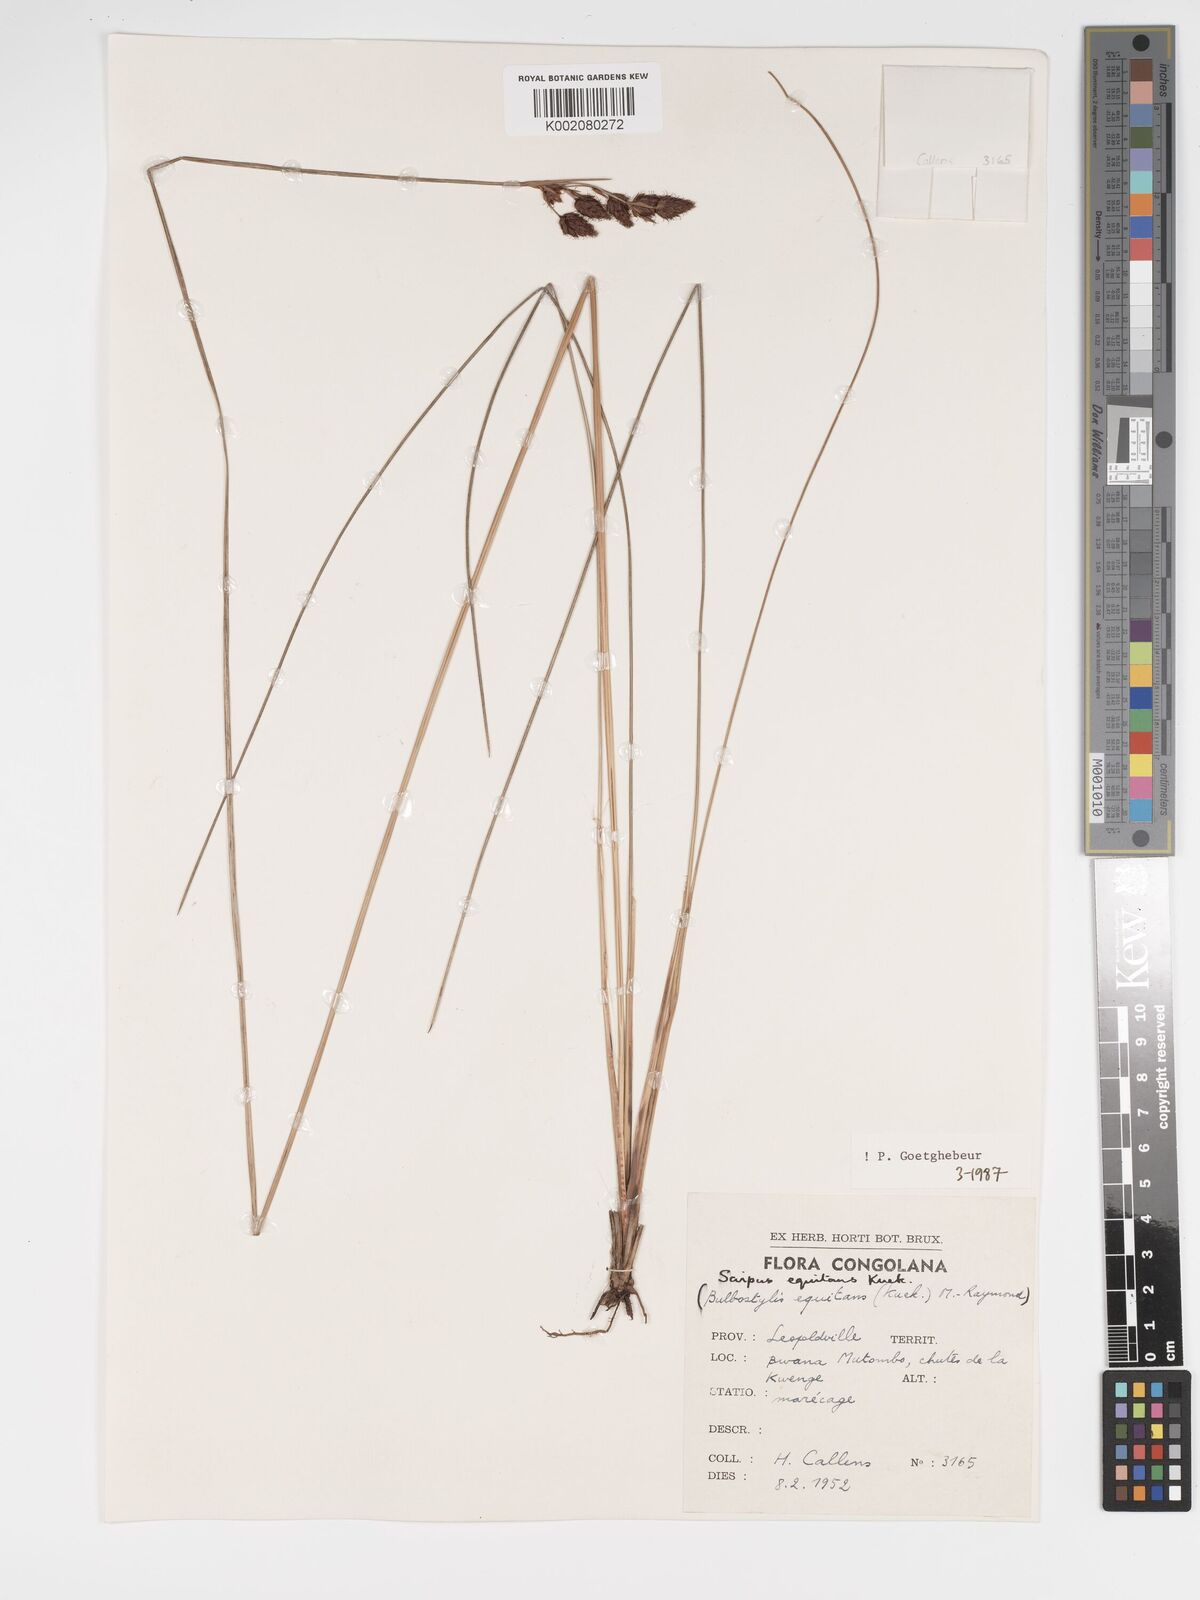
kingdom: Plantae
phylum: Tracheophyta
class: Liliopsida
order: Poales
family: Cyperaceae
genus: Bulbostylis
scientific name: Bulbostylis equitans
